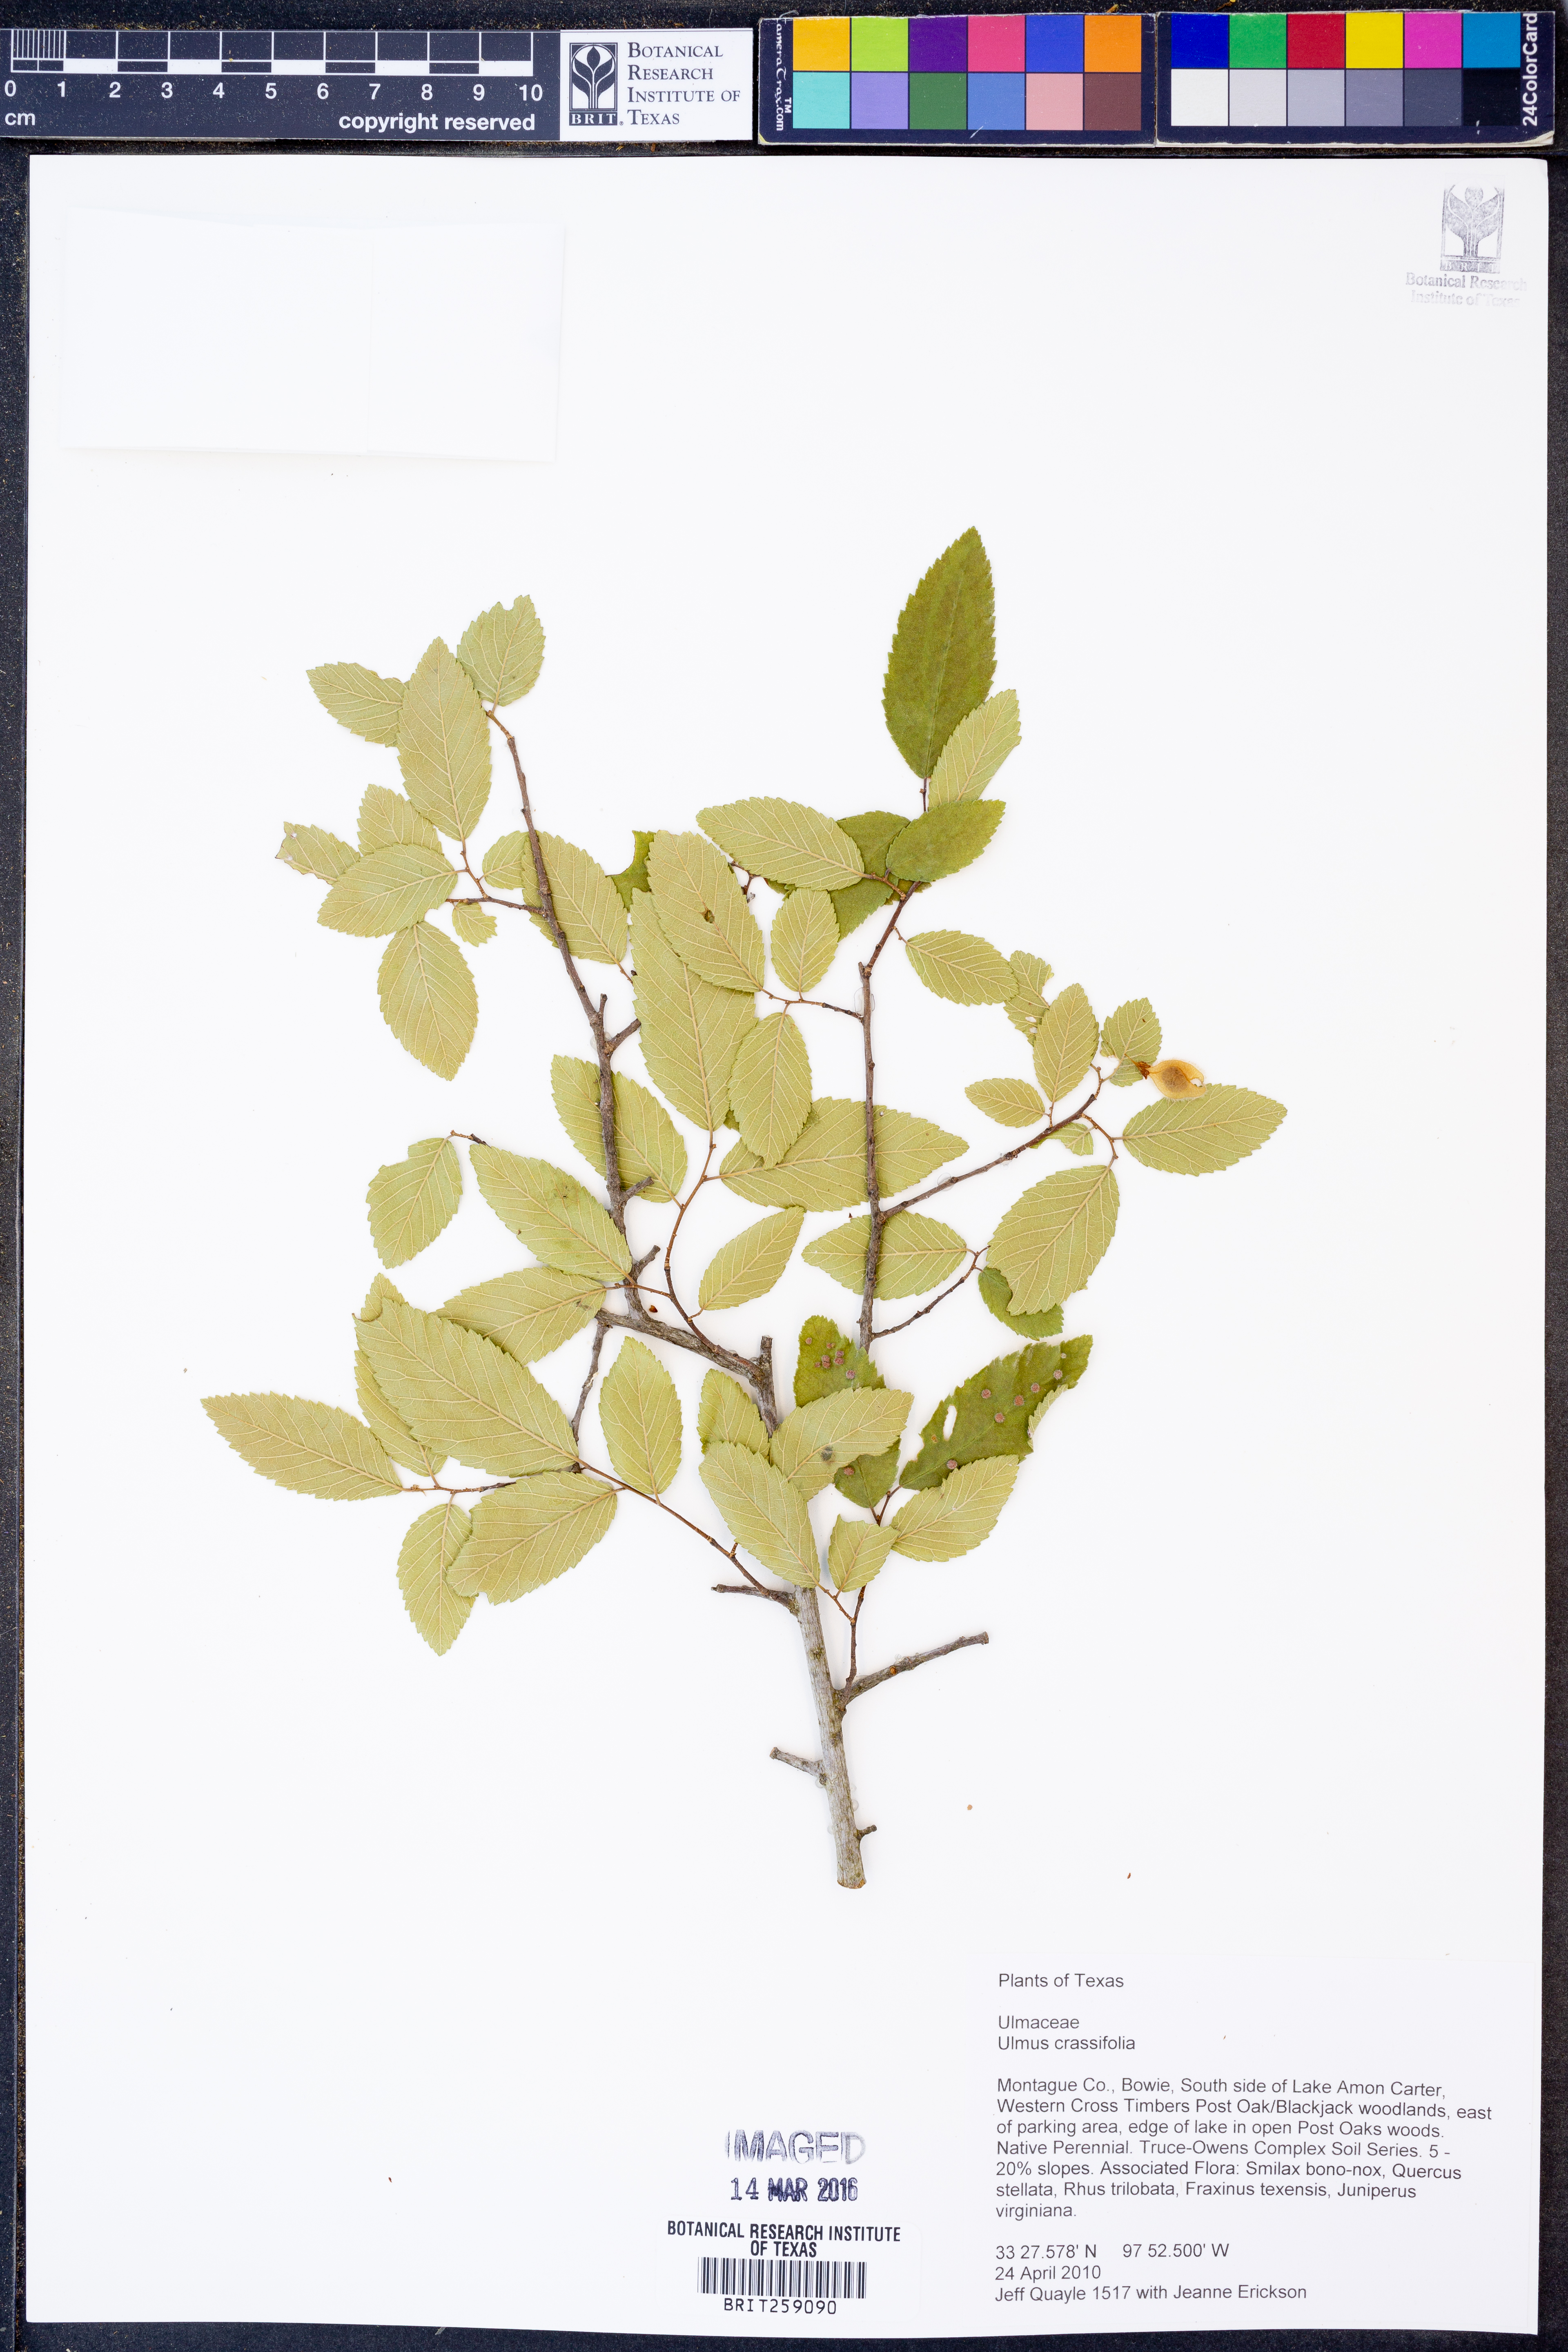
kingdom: Plantae
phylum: Tracheophyta
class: Magnoliopsida
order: Rosales
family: Ulmaceae
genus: Ulmus
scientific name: Ulmus crassifolia
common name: Basket elm
